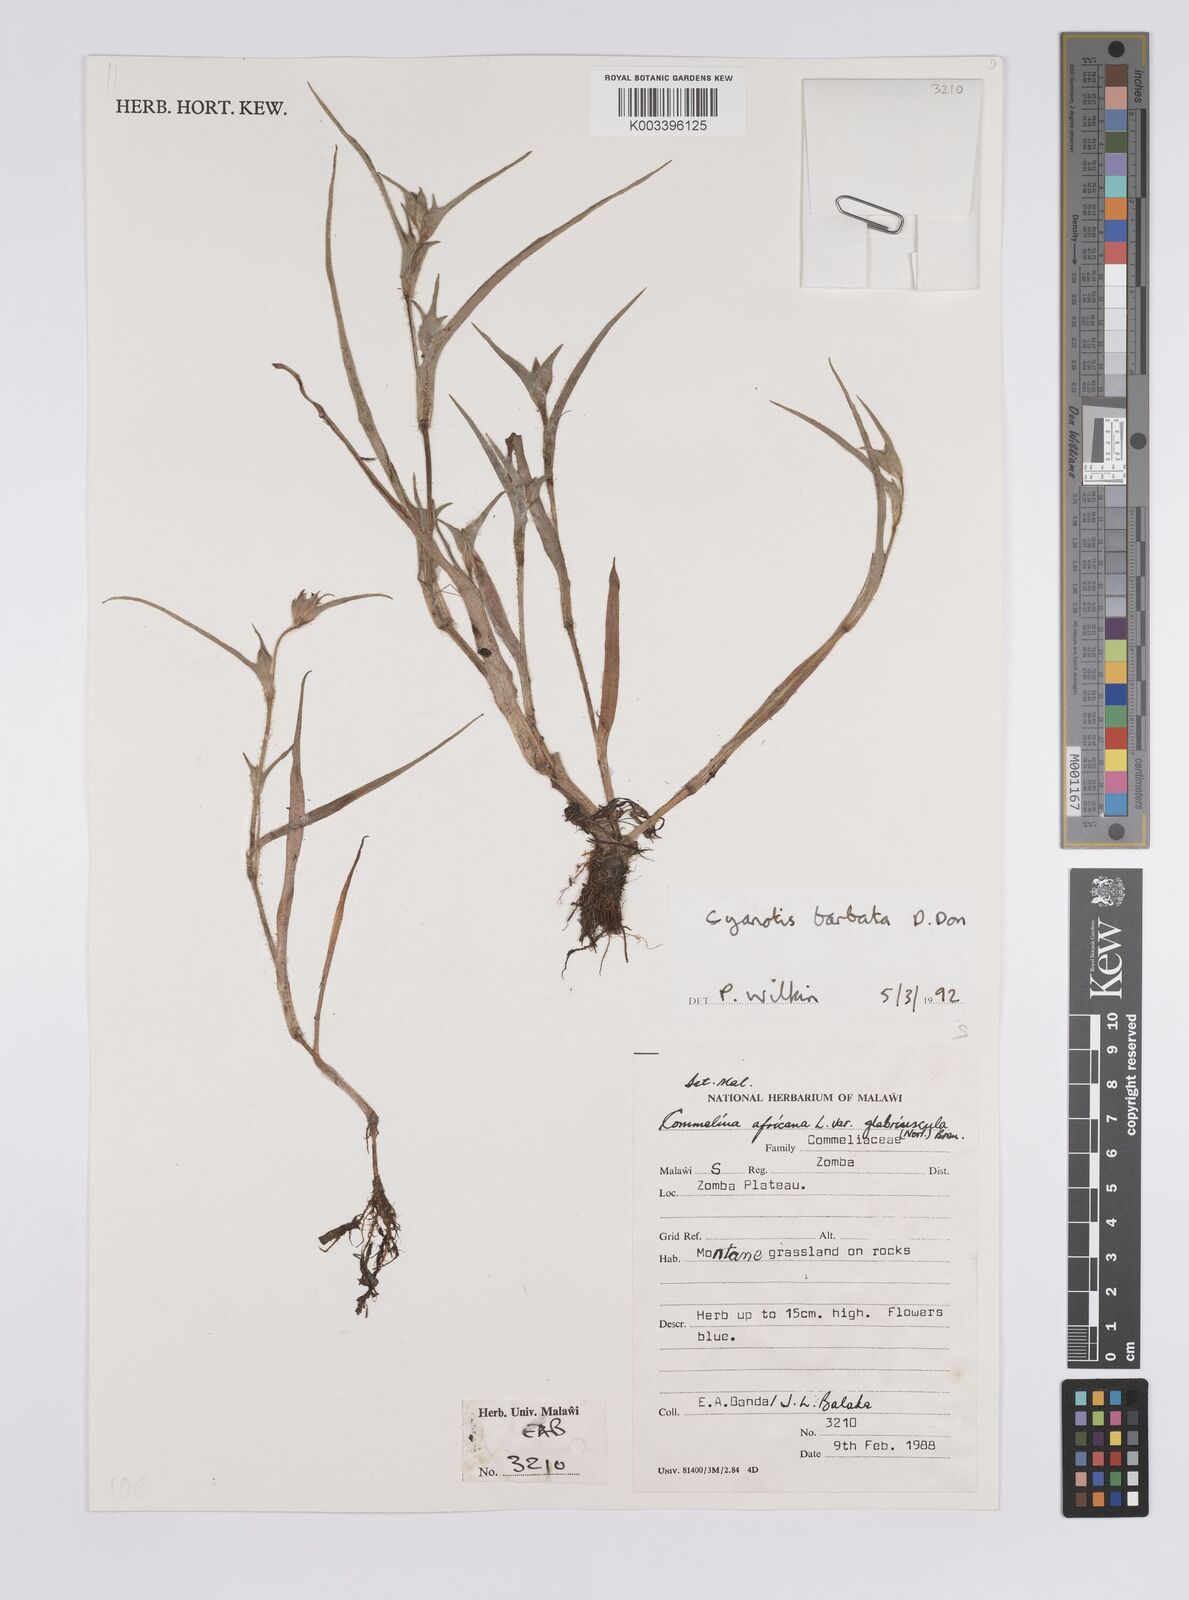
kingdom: Plantae
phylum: Tracheophyta
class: Liliopsida
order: Commelinales
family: Commelinaceae
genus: Cyanotis
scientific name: Cyanotis vaga
